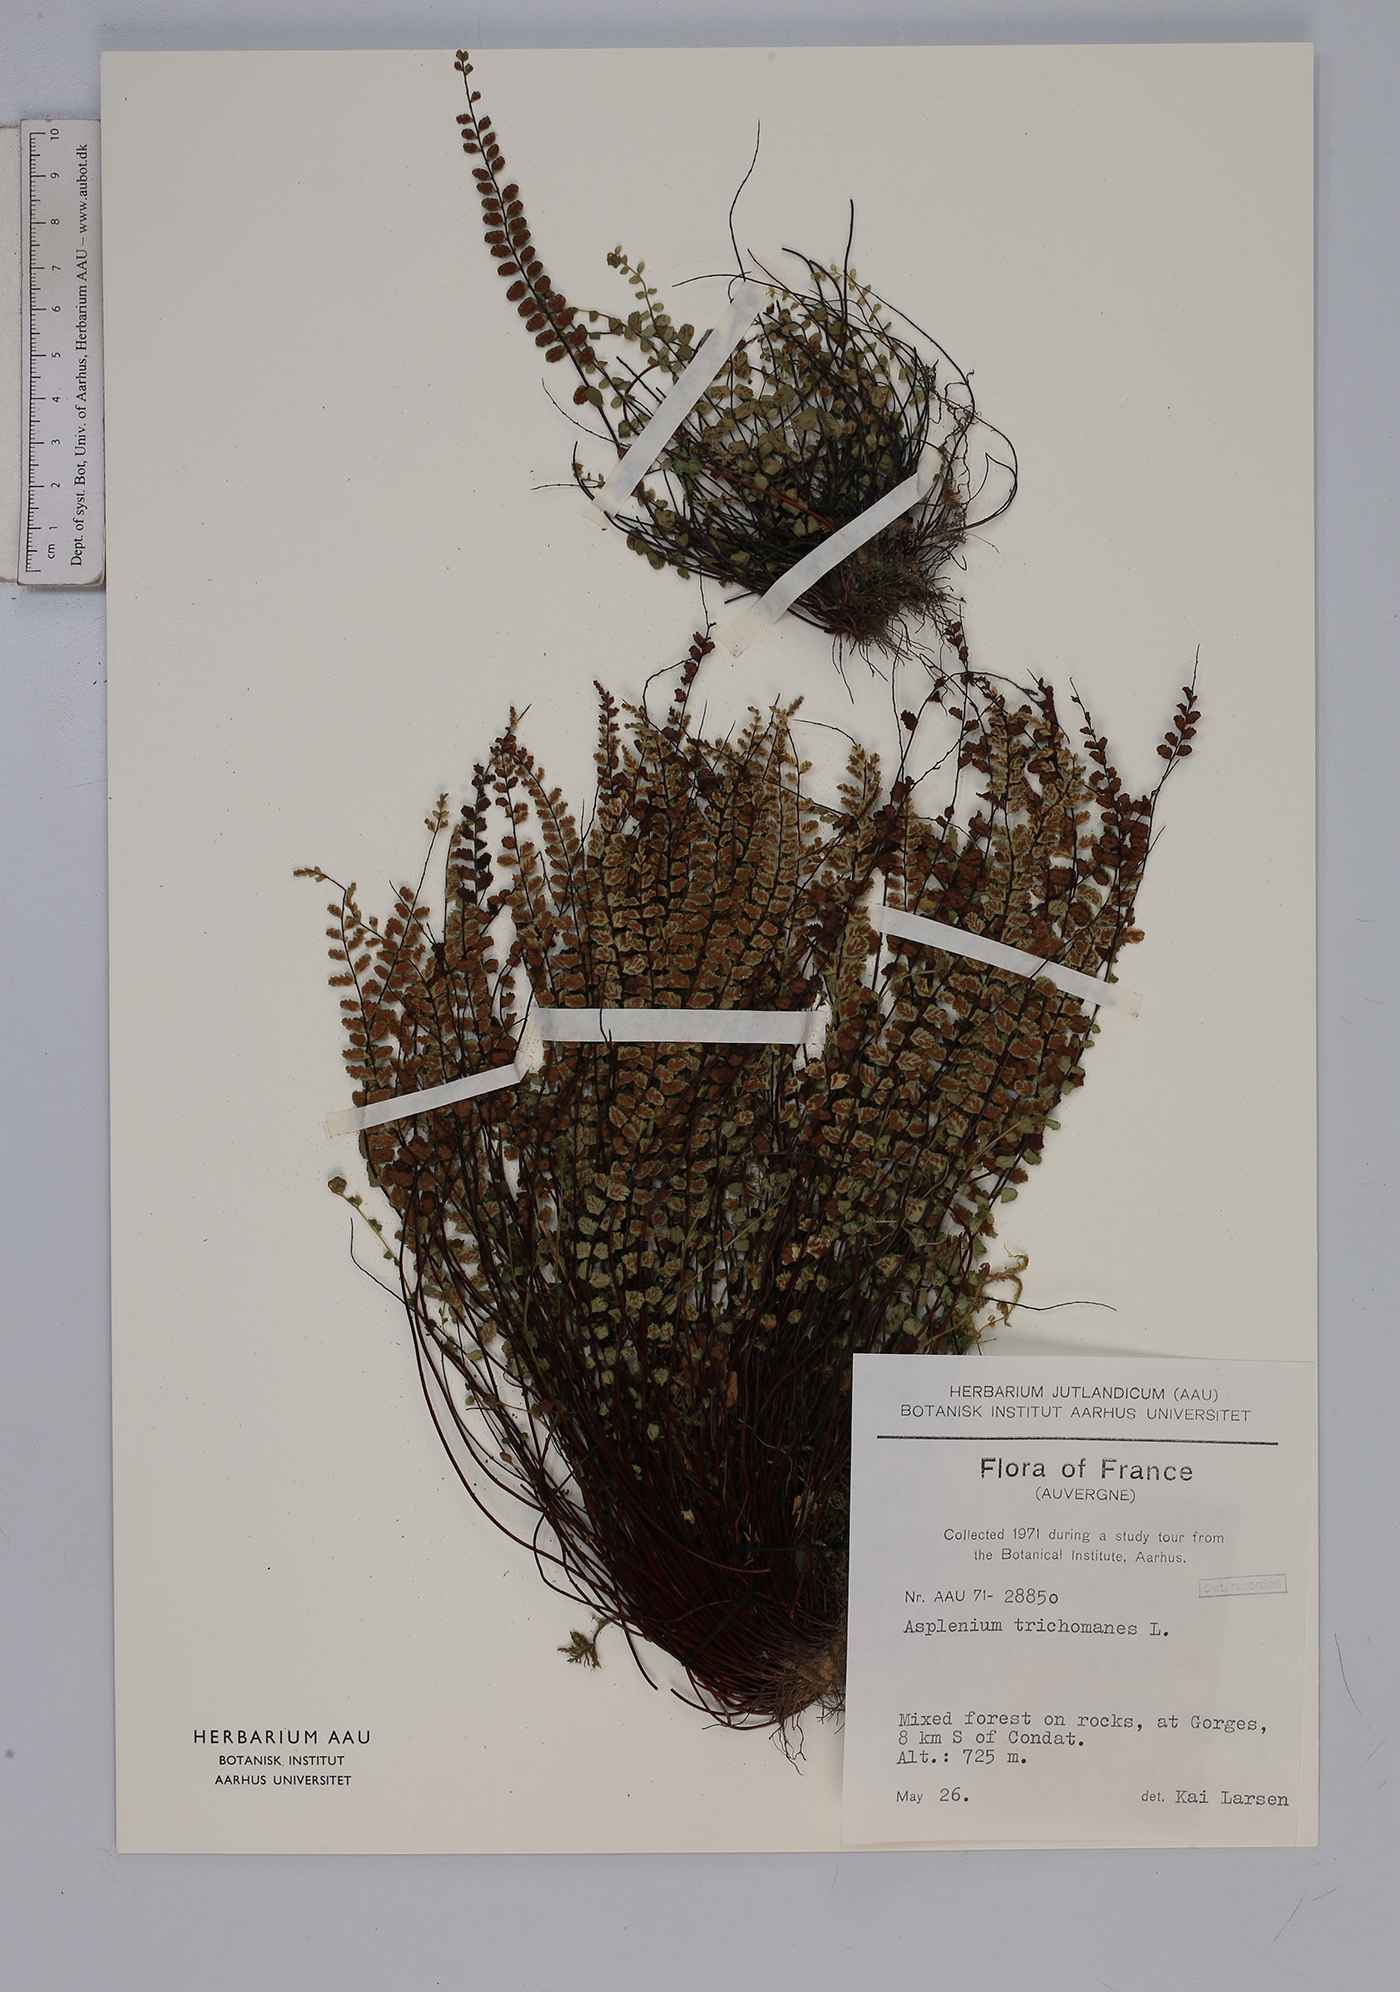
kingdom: Plantae
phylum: Tracheophyta
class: Polypodiopsida
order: Polypodiales
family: Aspleniaceae
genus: Asplenium
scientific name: Asplenium trichomanes
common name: Maidenhair spleenwort
